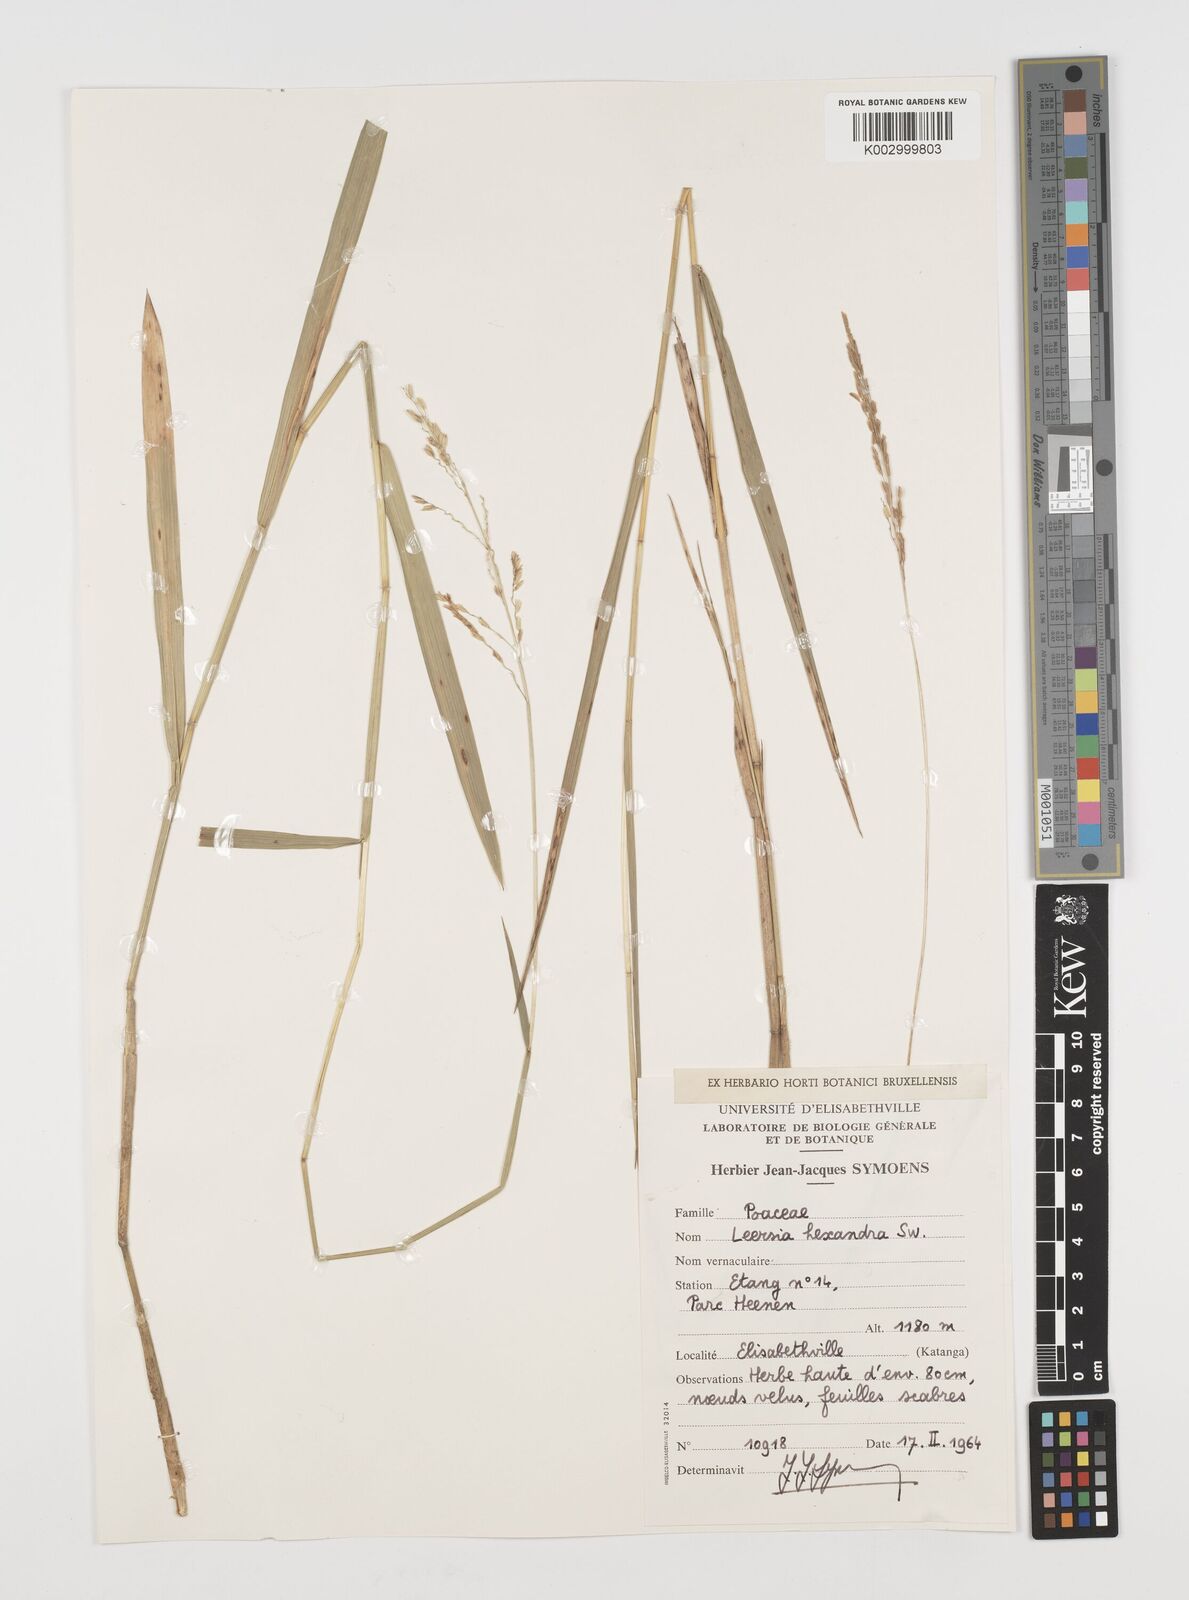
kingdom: Plantae
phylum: Tracheophyta
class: Liliopsida
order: Poales
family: Poaceae
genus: Leersia
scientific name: Leersia hexandra
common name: Southern cut grass
